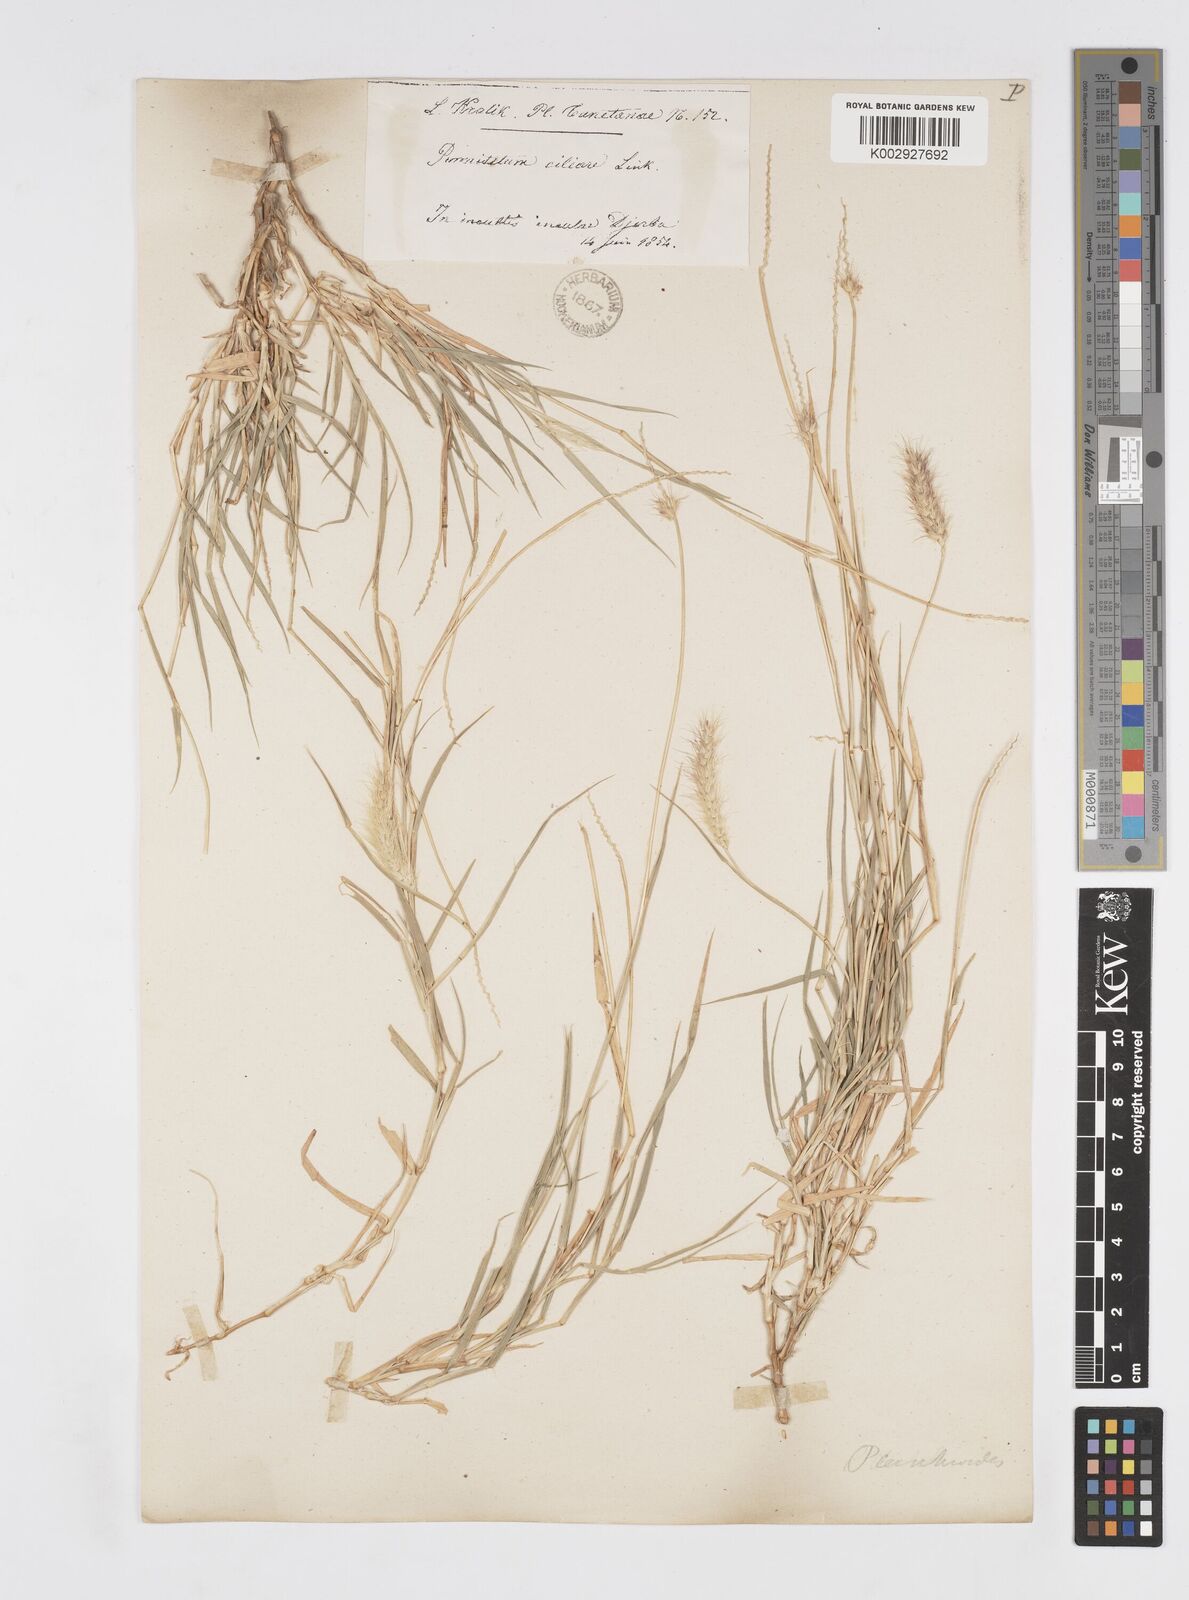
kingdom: Plantae
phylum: Tracheophyta
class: Liliopsida
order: Poales
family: Poaceae
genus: Cenchrus
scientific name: Cenchrus ciliaris
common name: Buffelgrass
